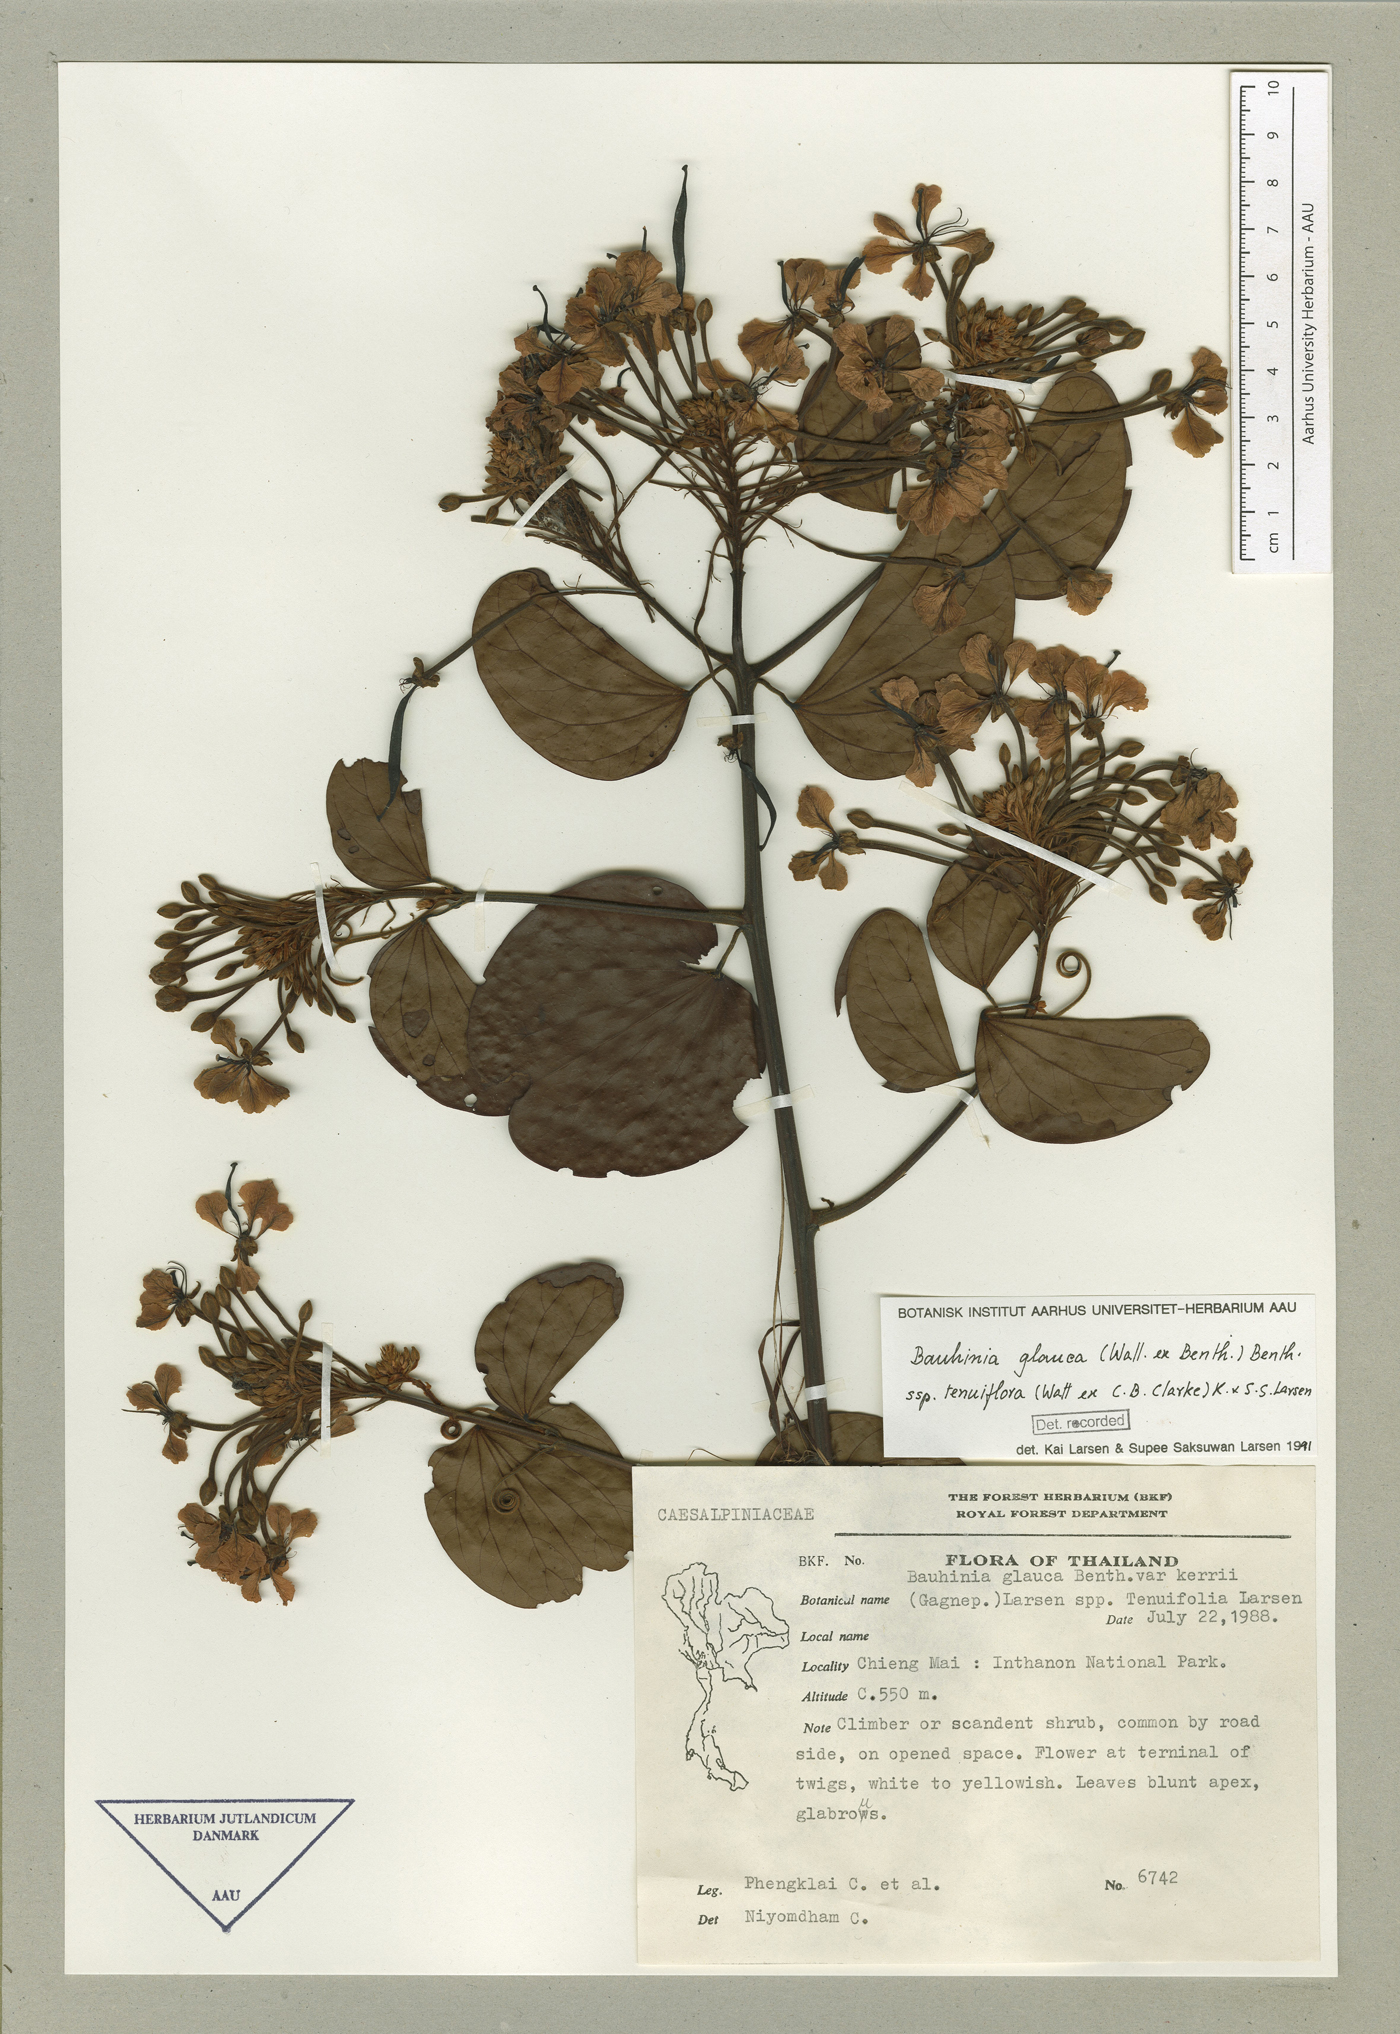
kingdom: Plantae
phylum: Tracheophyta
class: Magnoliopsida
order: Fabales
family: Fabaceae
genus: Cheniella
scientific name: Cheniella tenuiflora
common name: Bauhinia
